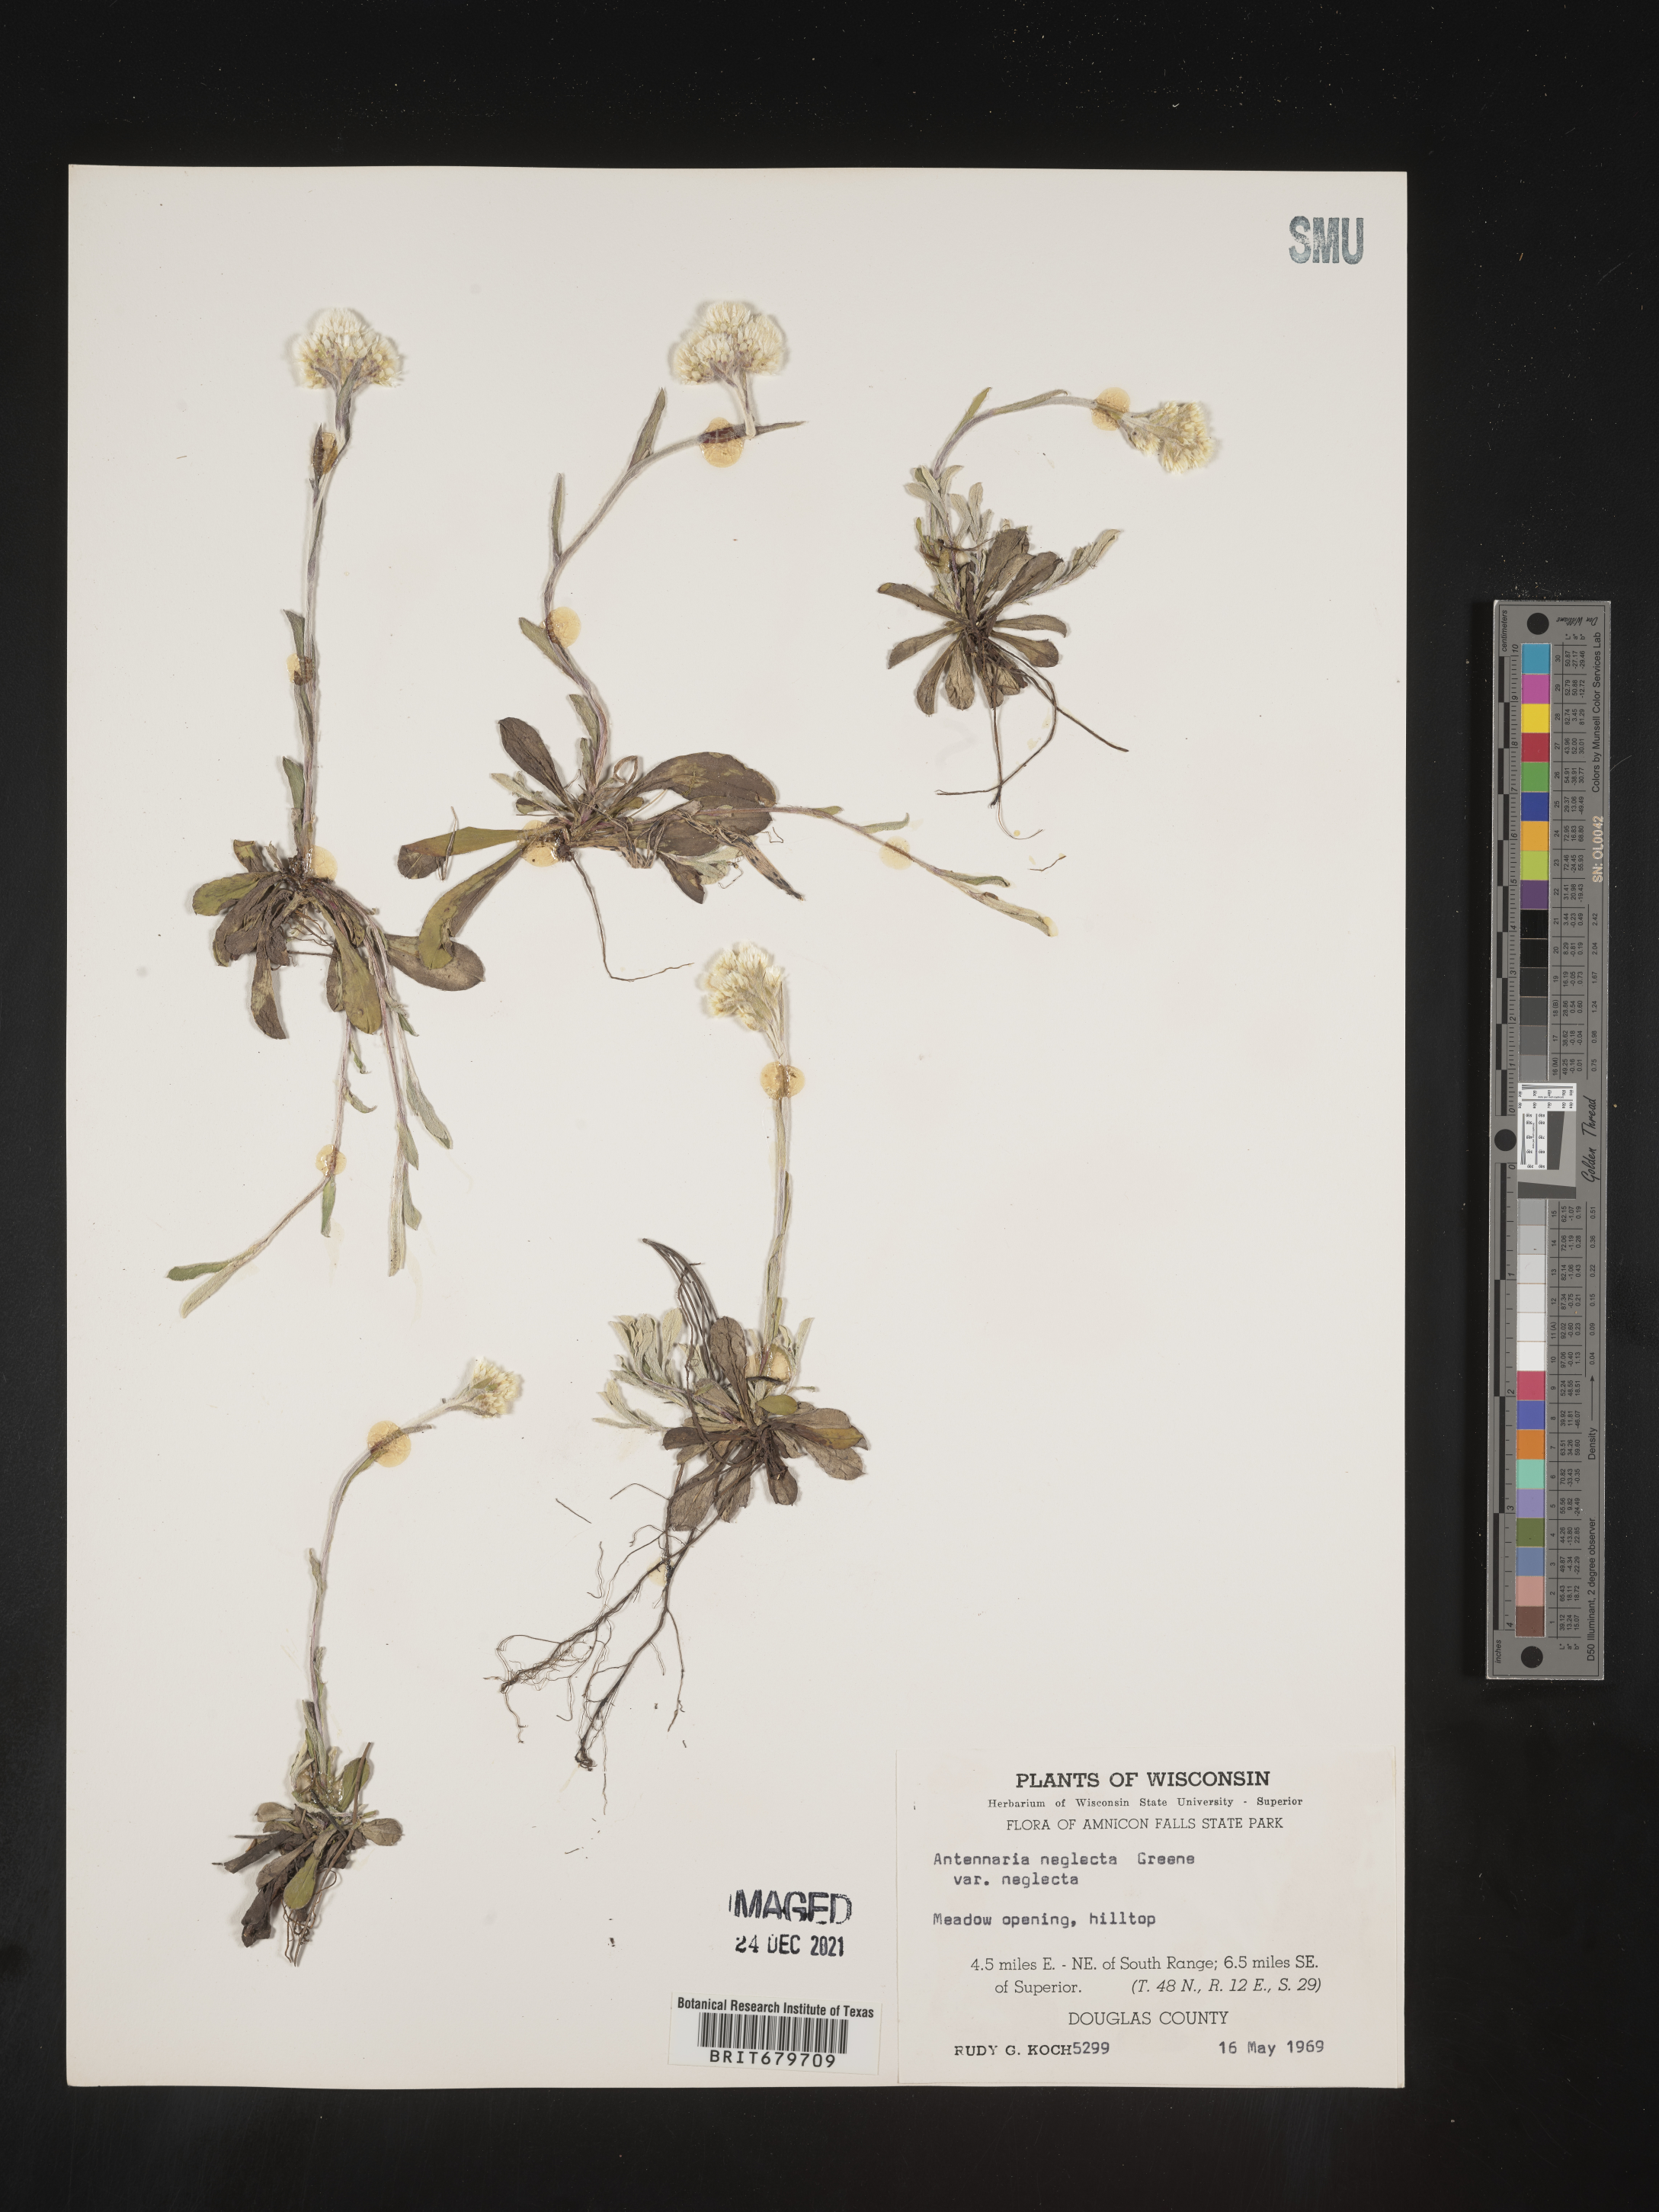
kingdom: Plantae
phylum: Tracheophyta
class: Magnoliopsida
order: Asterales
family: Asteraceae
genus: Antennaria
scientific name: Antennaria neglecta
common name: Field pussytoes
